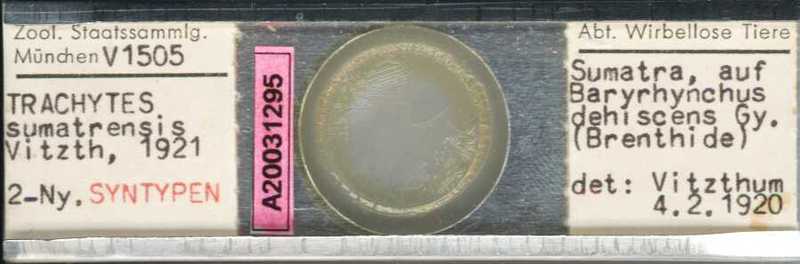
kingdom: Animalia
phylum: Arthropoda
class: Arachnida
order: Mesostigmata
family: Polyaspididae
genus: Trachytes
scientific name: Trachytes
